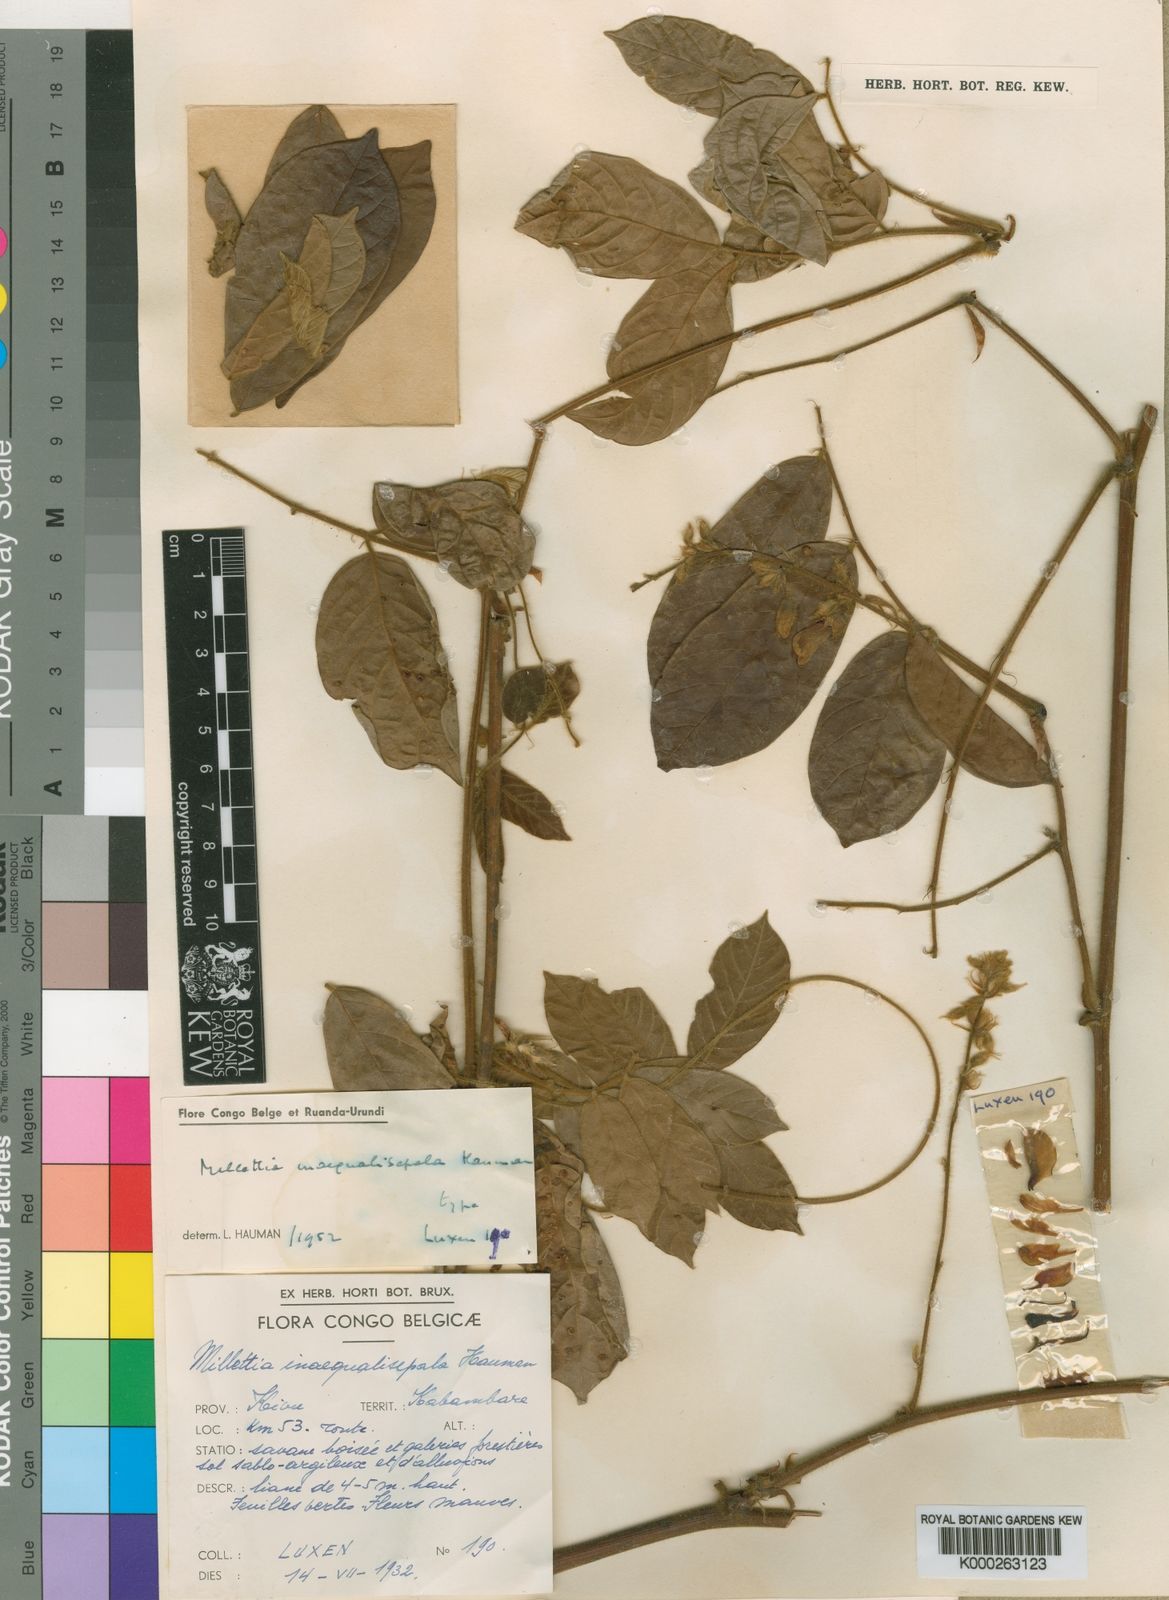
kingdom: Plantae
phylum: Tracheophyta
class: Magnoliopsida
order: Fabales
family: Fabaceae
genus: Millettia
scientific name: Millettia angustidentata
